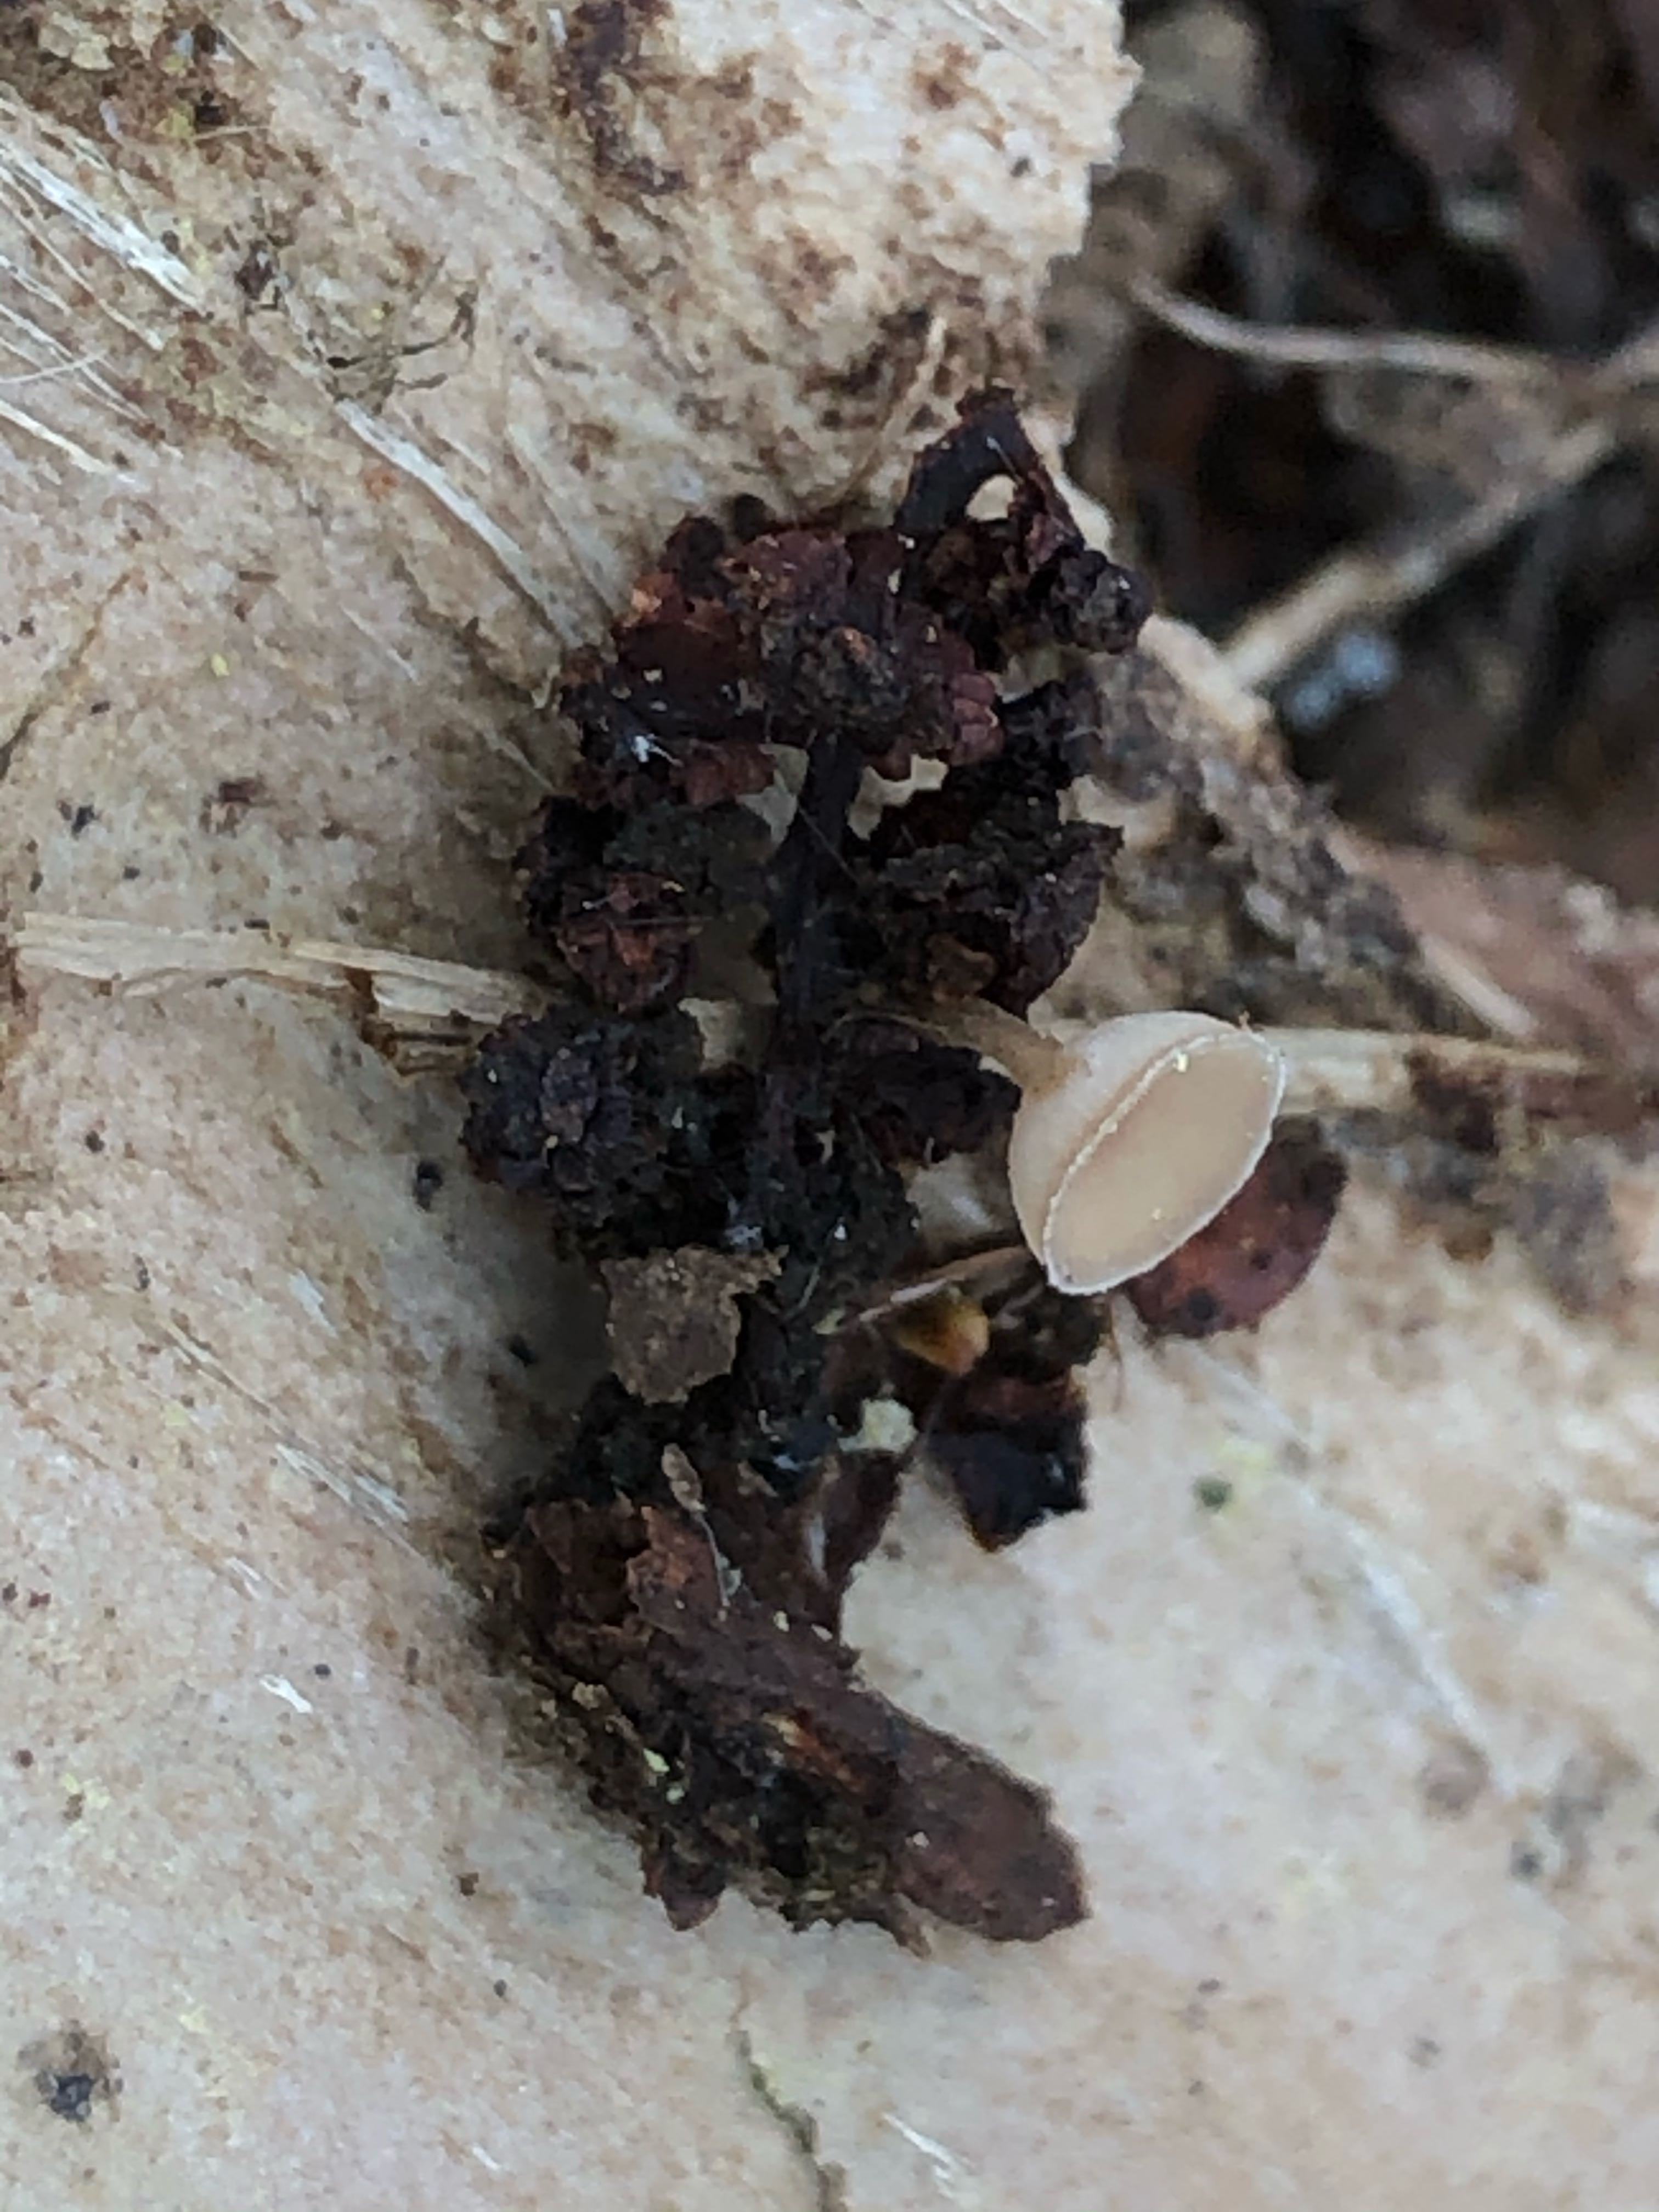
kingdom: Fungi
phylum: Ascomycota
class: Leotiomycetes
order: Helotiales
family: Sclerotiniaceae
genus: Ciboria
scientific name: Ciboria amentacea
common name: ellerakle-knoldskive
